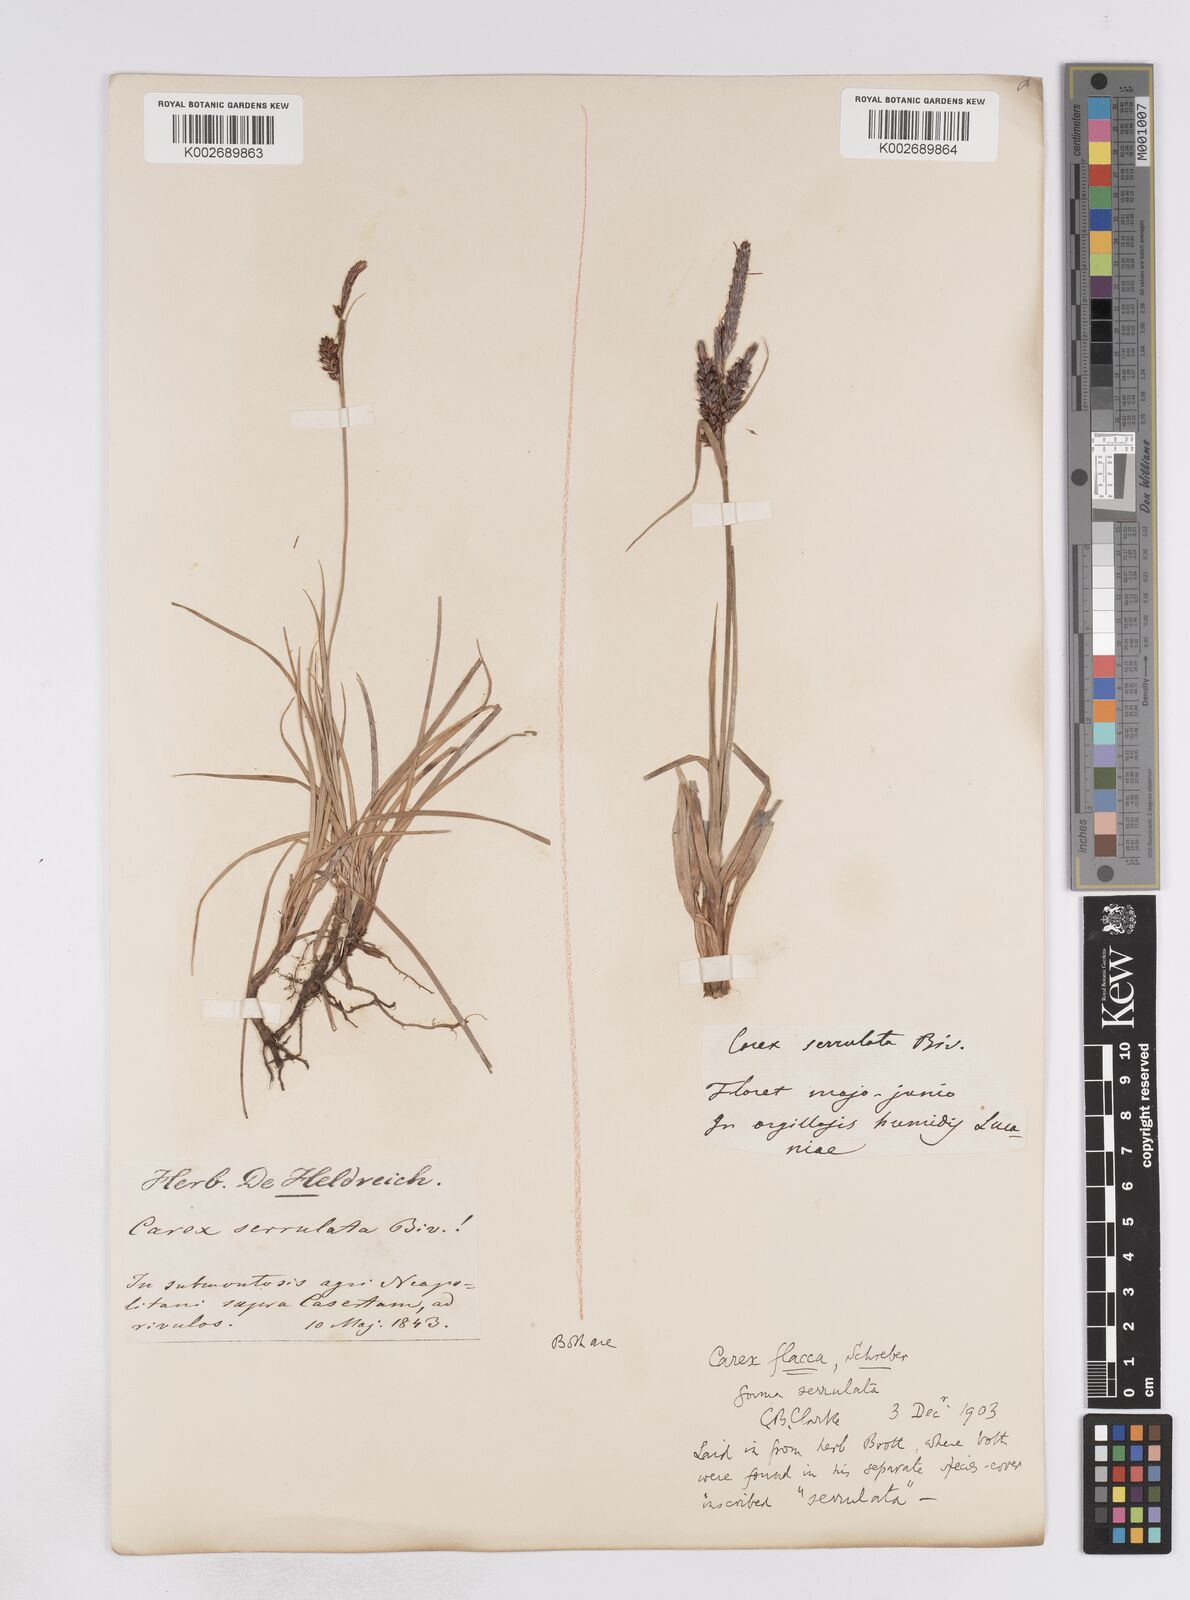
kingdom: Plantae
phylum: Tracheophyta
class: Liliopsida
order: Poales
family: Cyperaceae
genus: Carex
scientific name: Carex flacca
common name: Glaucous sedge
